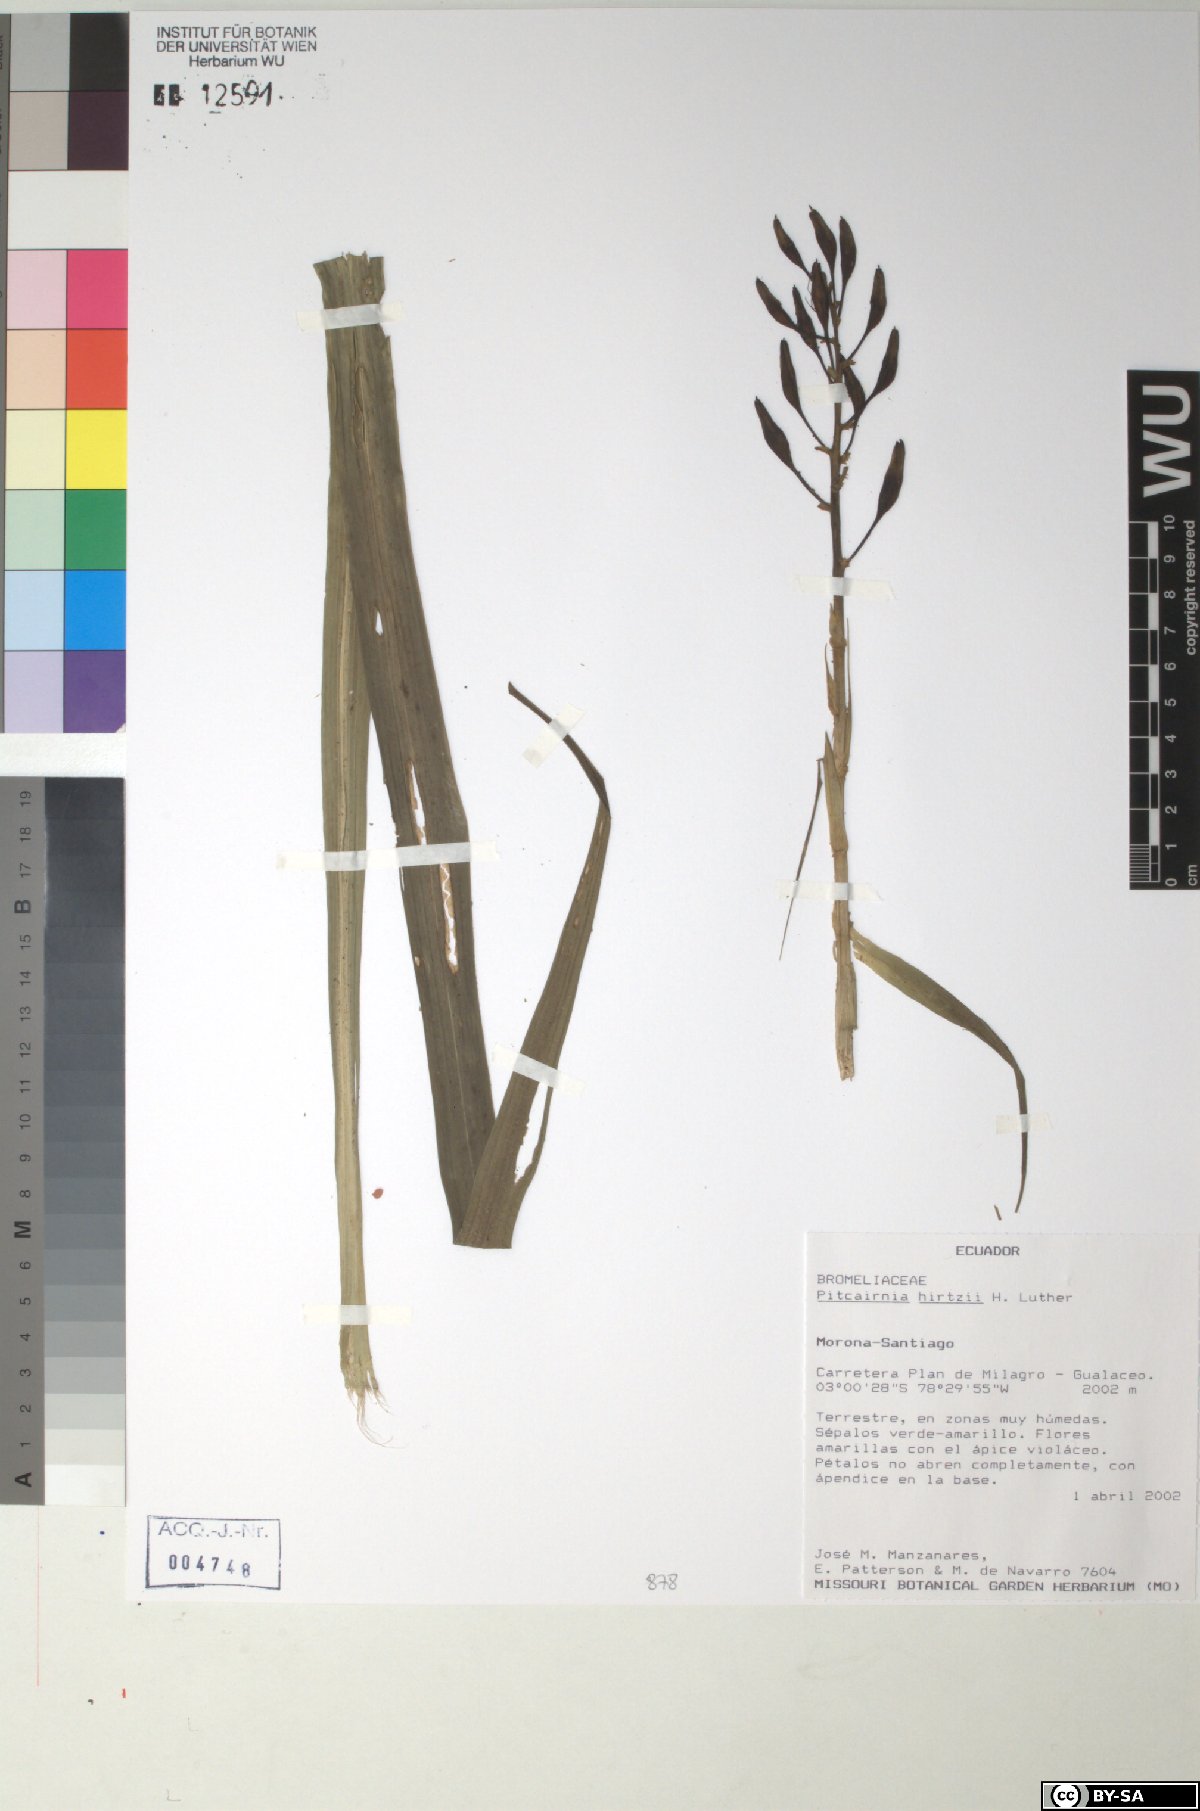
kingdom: Plantae
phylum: Tracheophyta
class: Liliopsida
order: Poales
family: Bromeliaceae
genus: Pitcairnia
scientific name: Pitcairnia hirtzii
